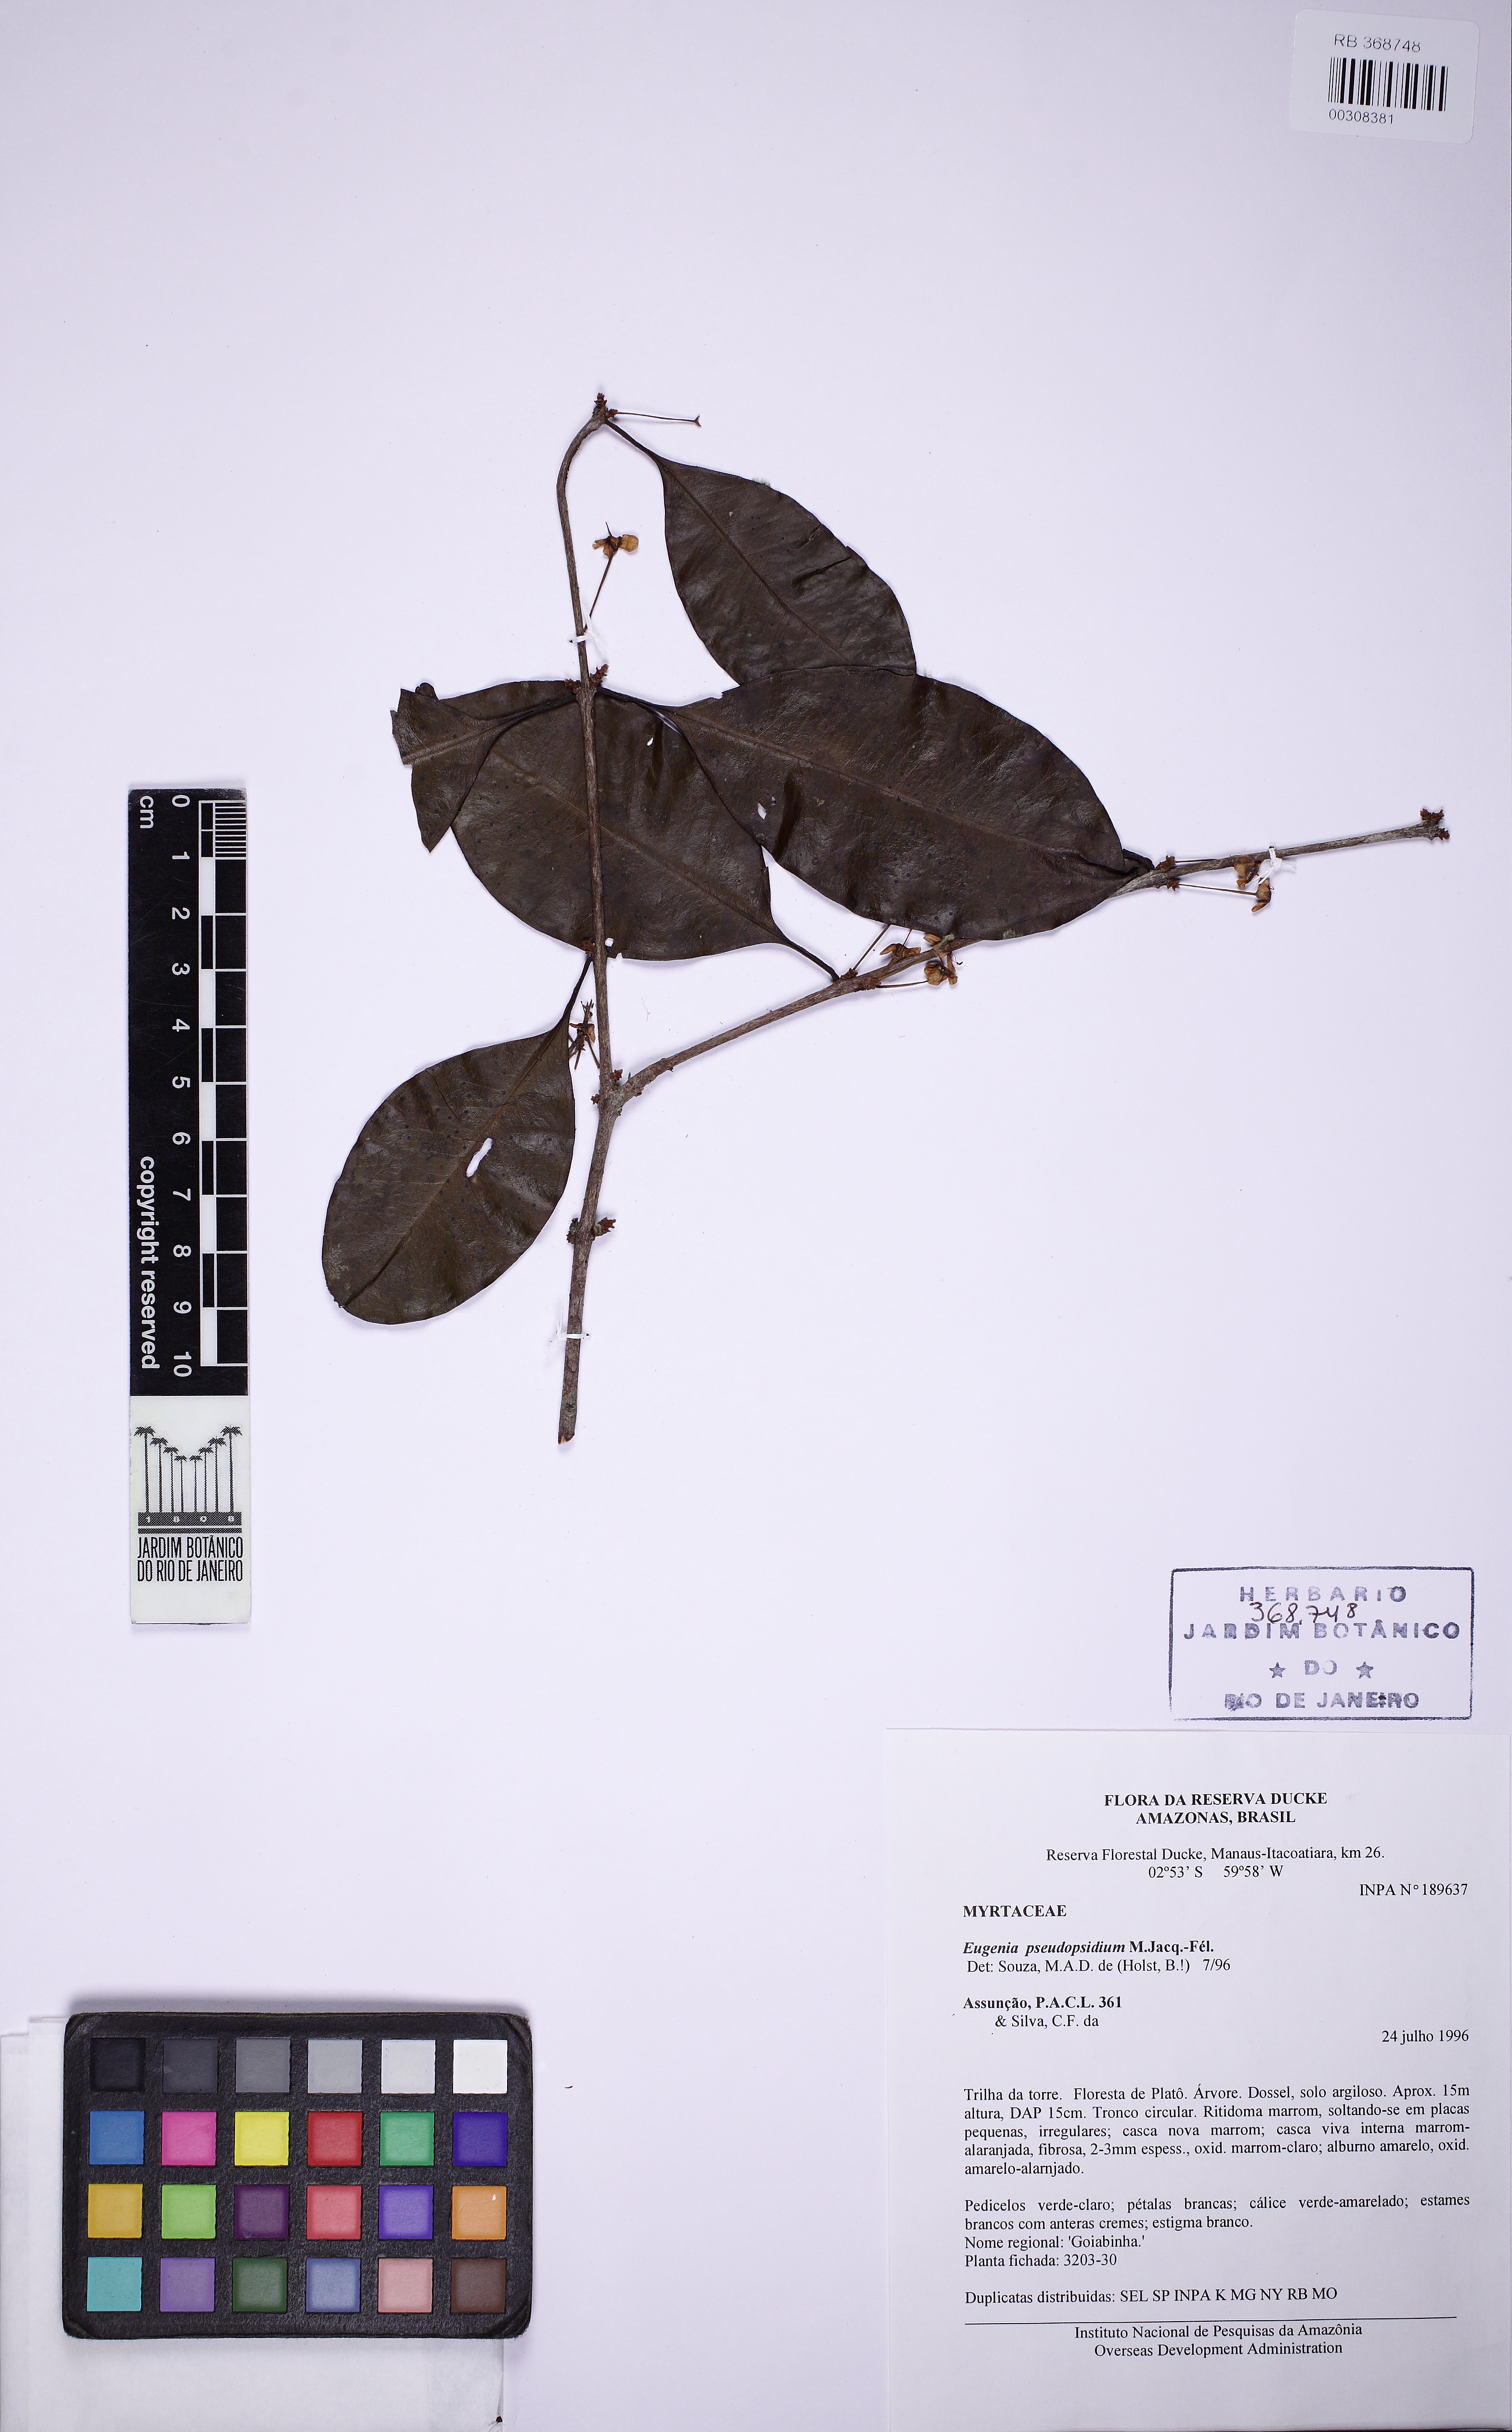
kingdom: Plantae
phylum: Tracheophyta
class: Magnoliopsida
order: Myrtales
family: Myrtaceae
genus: Eugenia
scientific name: Eugenia pseudopsidium
